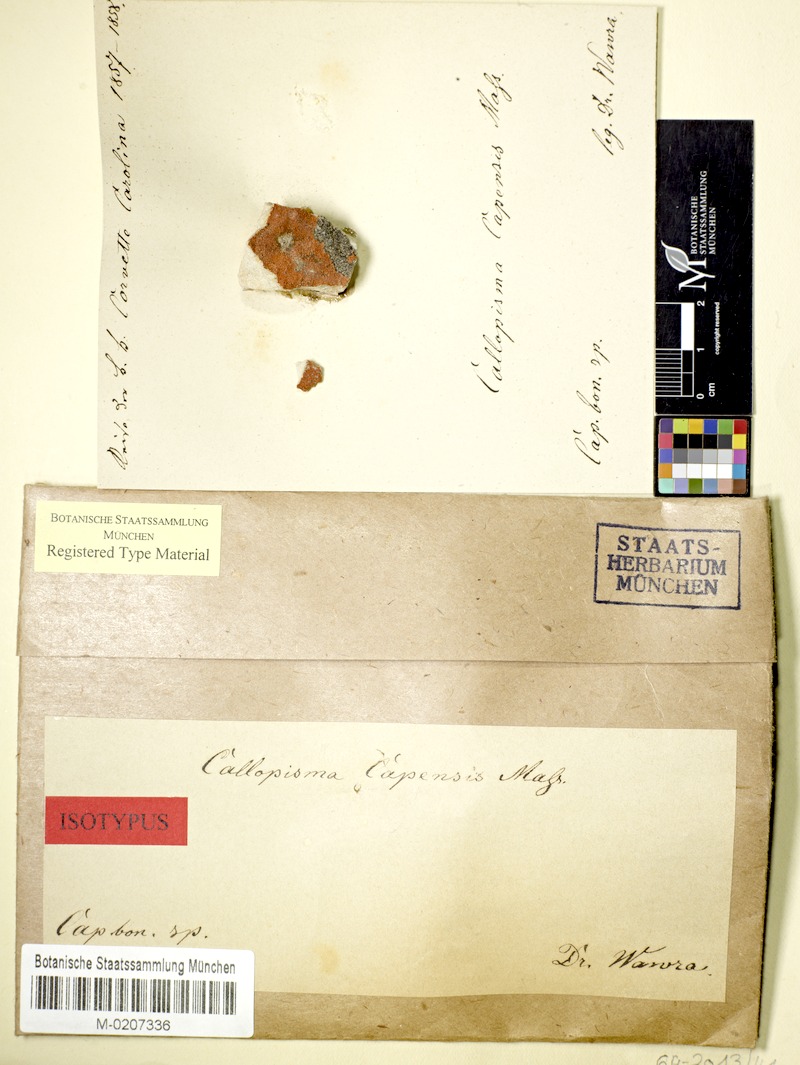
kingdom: Fungi
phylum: Ascomycota
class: Lecanoromycetes
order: Teloschistales
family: Teloschistaceae
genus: Caloplaca
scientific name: Caloplaca
